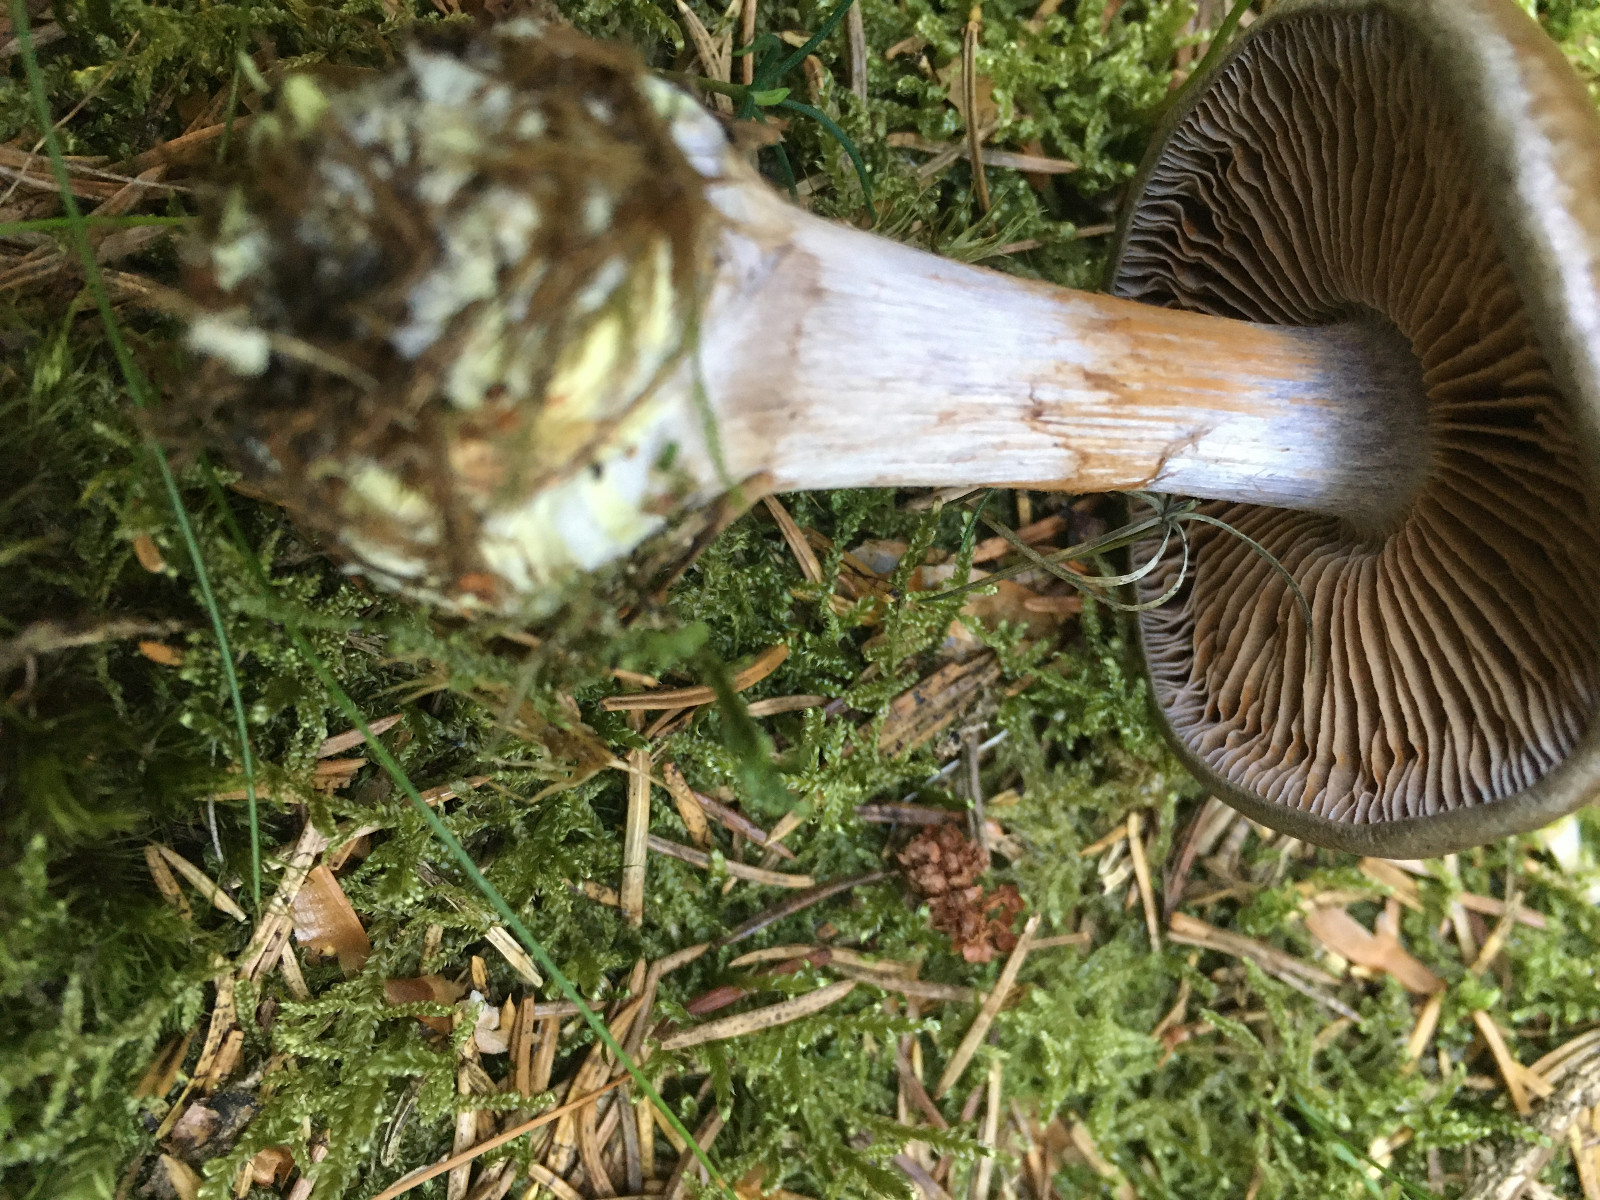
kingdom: Fungi
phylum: Basidiomycota
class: Agaricomycetes
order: Agaricales
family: Cortinariaceae
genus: Thaxterogaster
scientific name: Thaxterogaster sphagnophilus
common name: vandplettet slørhat
